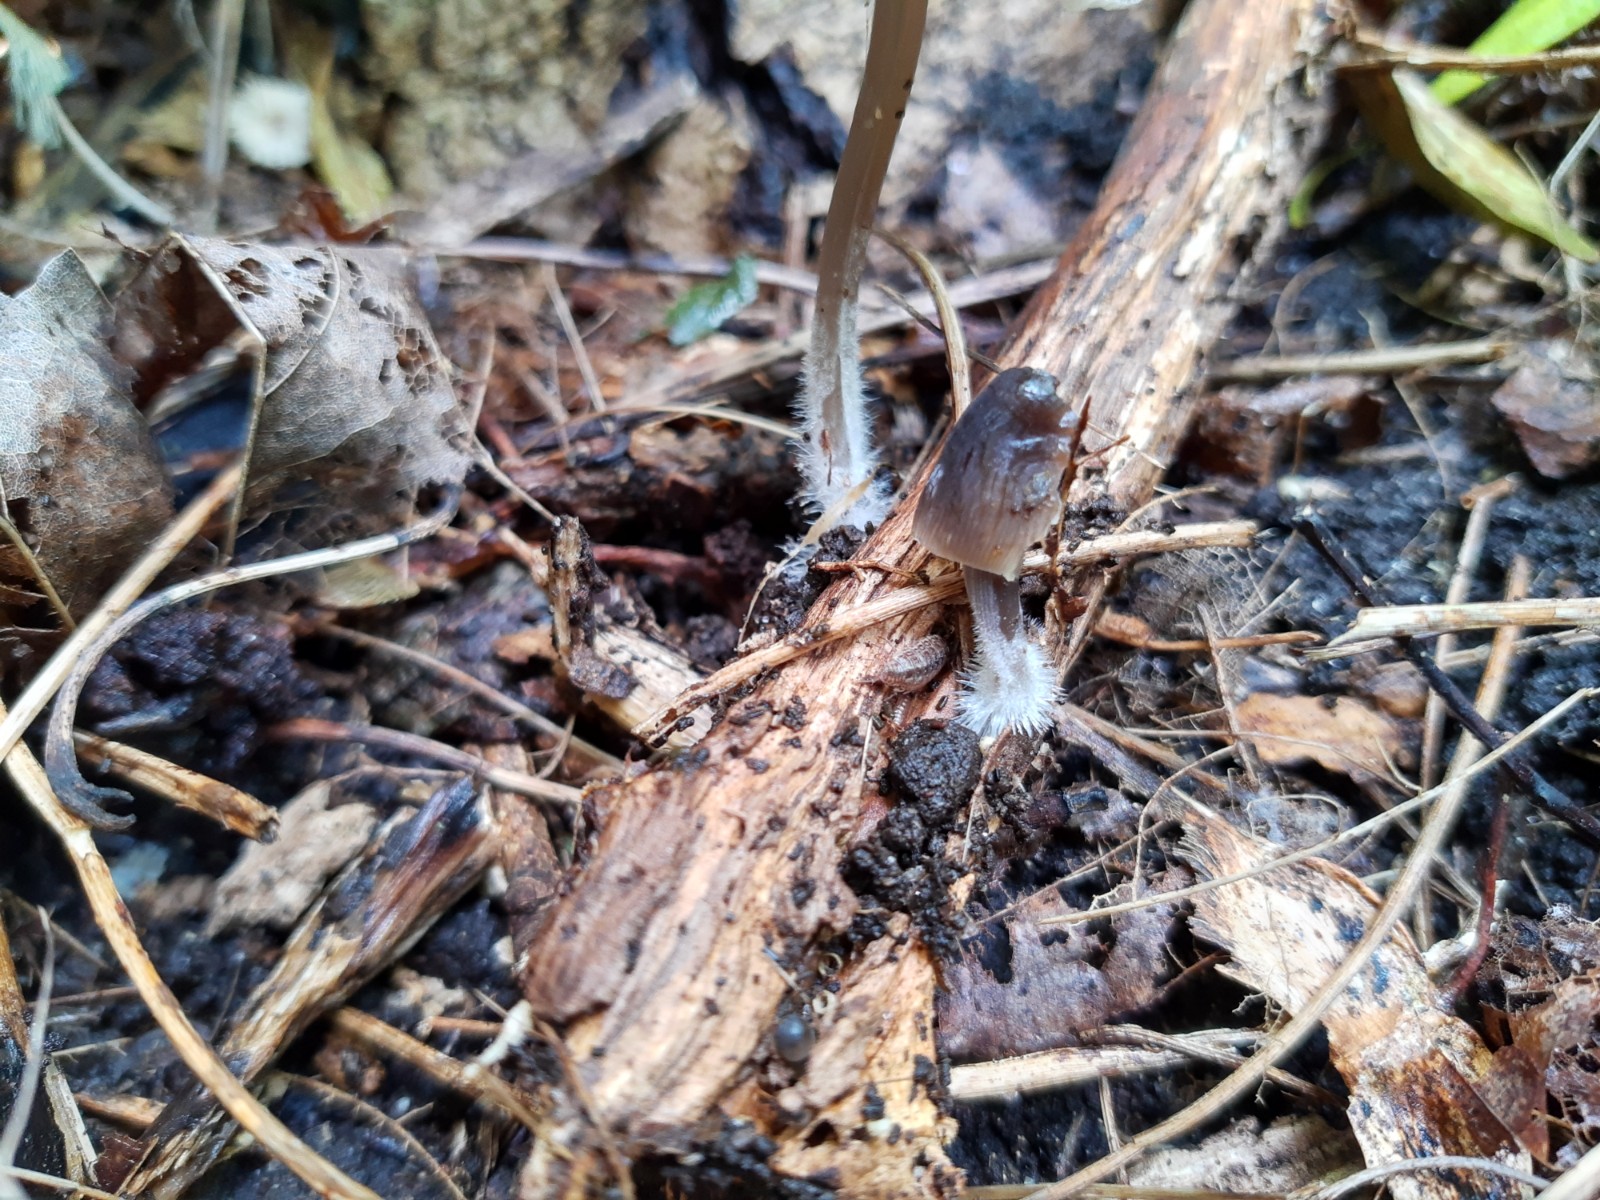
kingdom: Fungi
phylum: Basidiomycota
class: Agaricomycetes
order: Agaricales
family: Mycenaceae
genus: Mycena
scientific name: Mycena leptocephala
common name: klor-huesvamp
